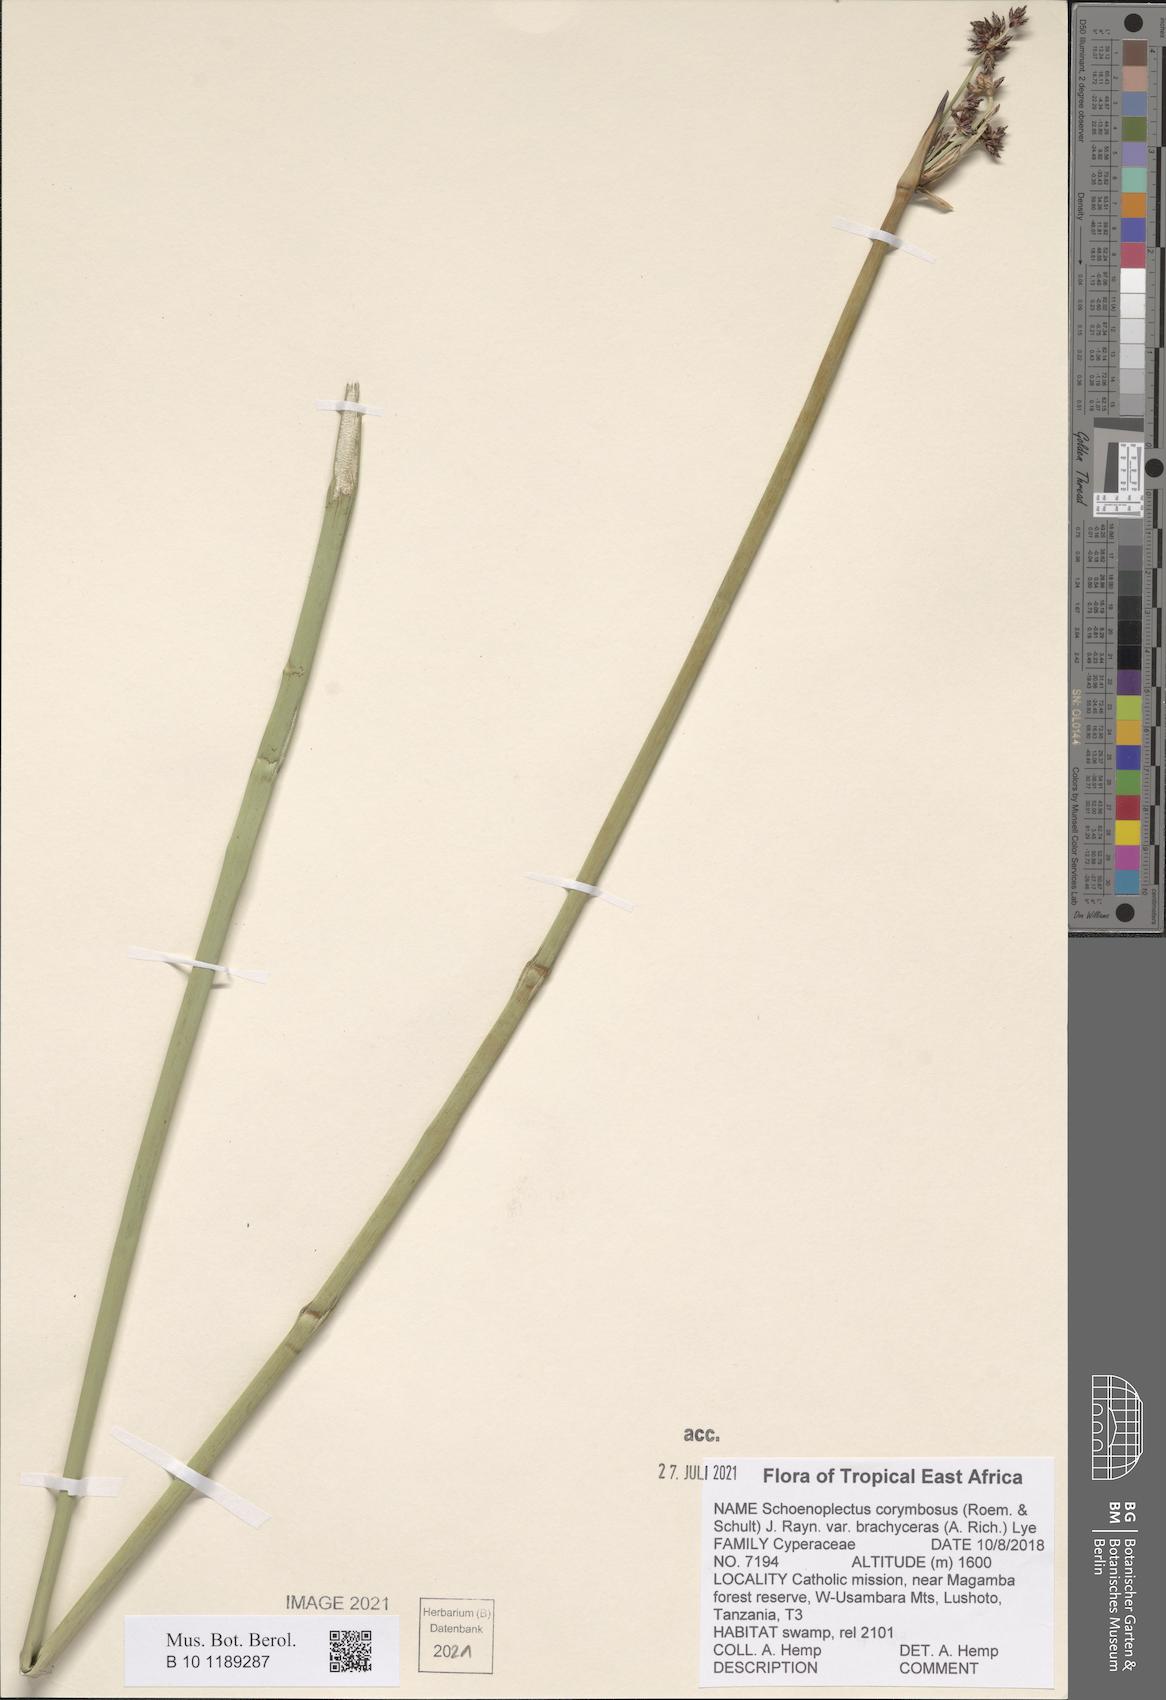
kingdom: Plantae
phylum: Tracheophyta
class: Liliopsida
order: Poales
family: Cyperaceae
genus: Schoenoplectiella
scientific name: Schoenoplectiella brachyceras
